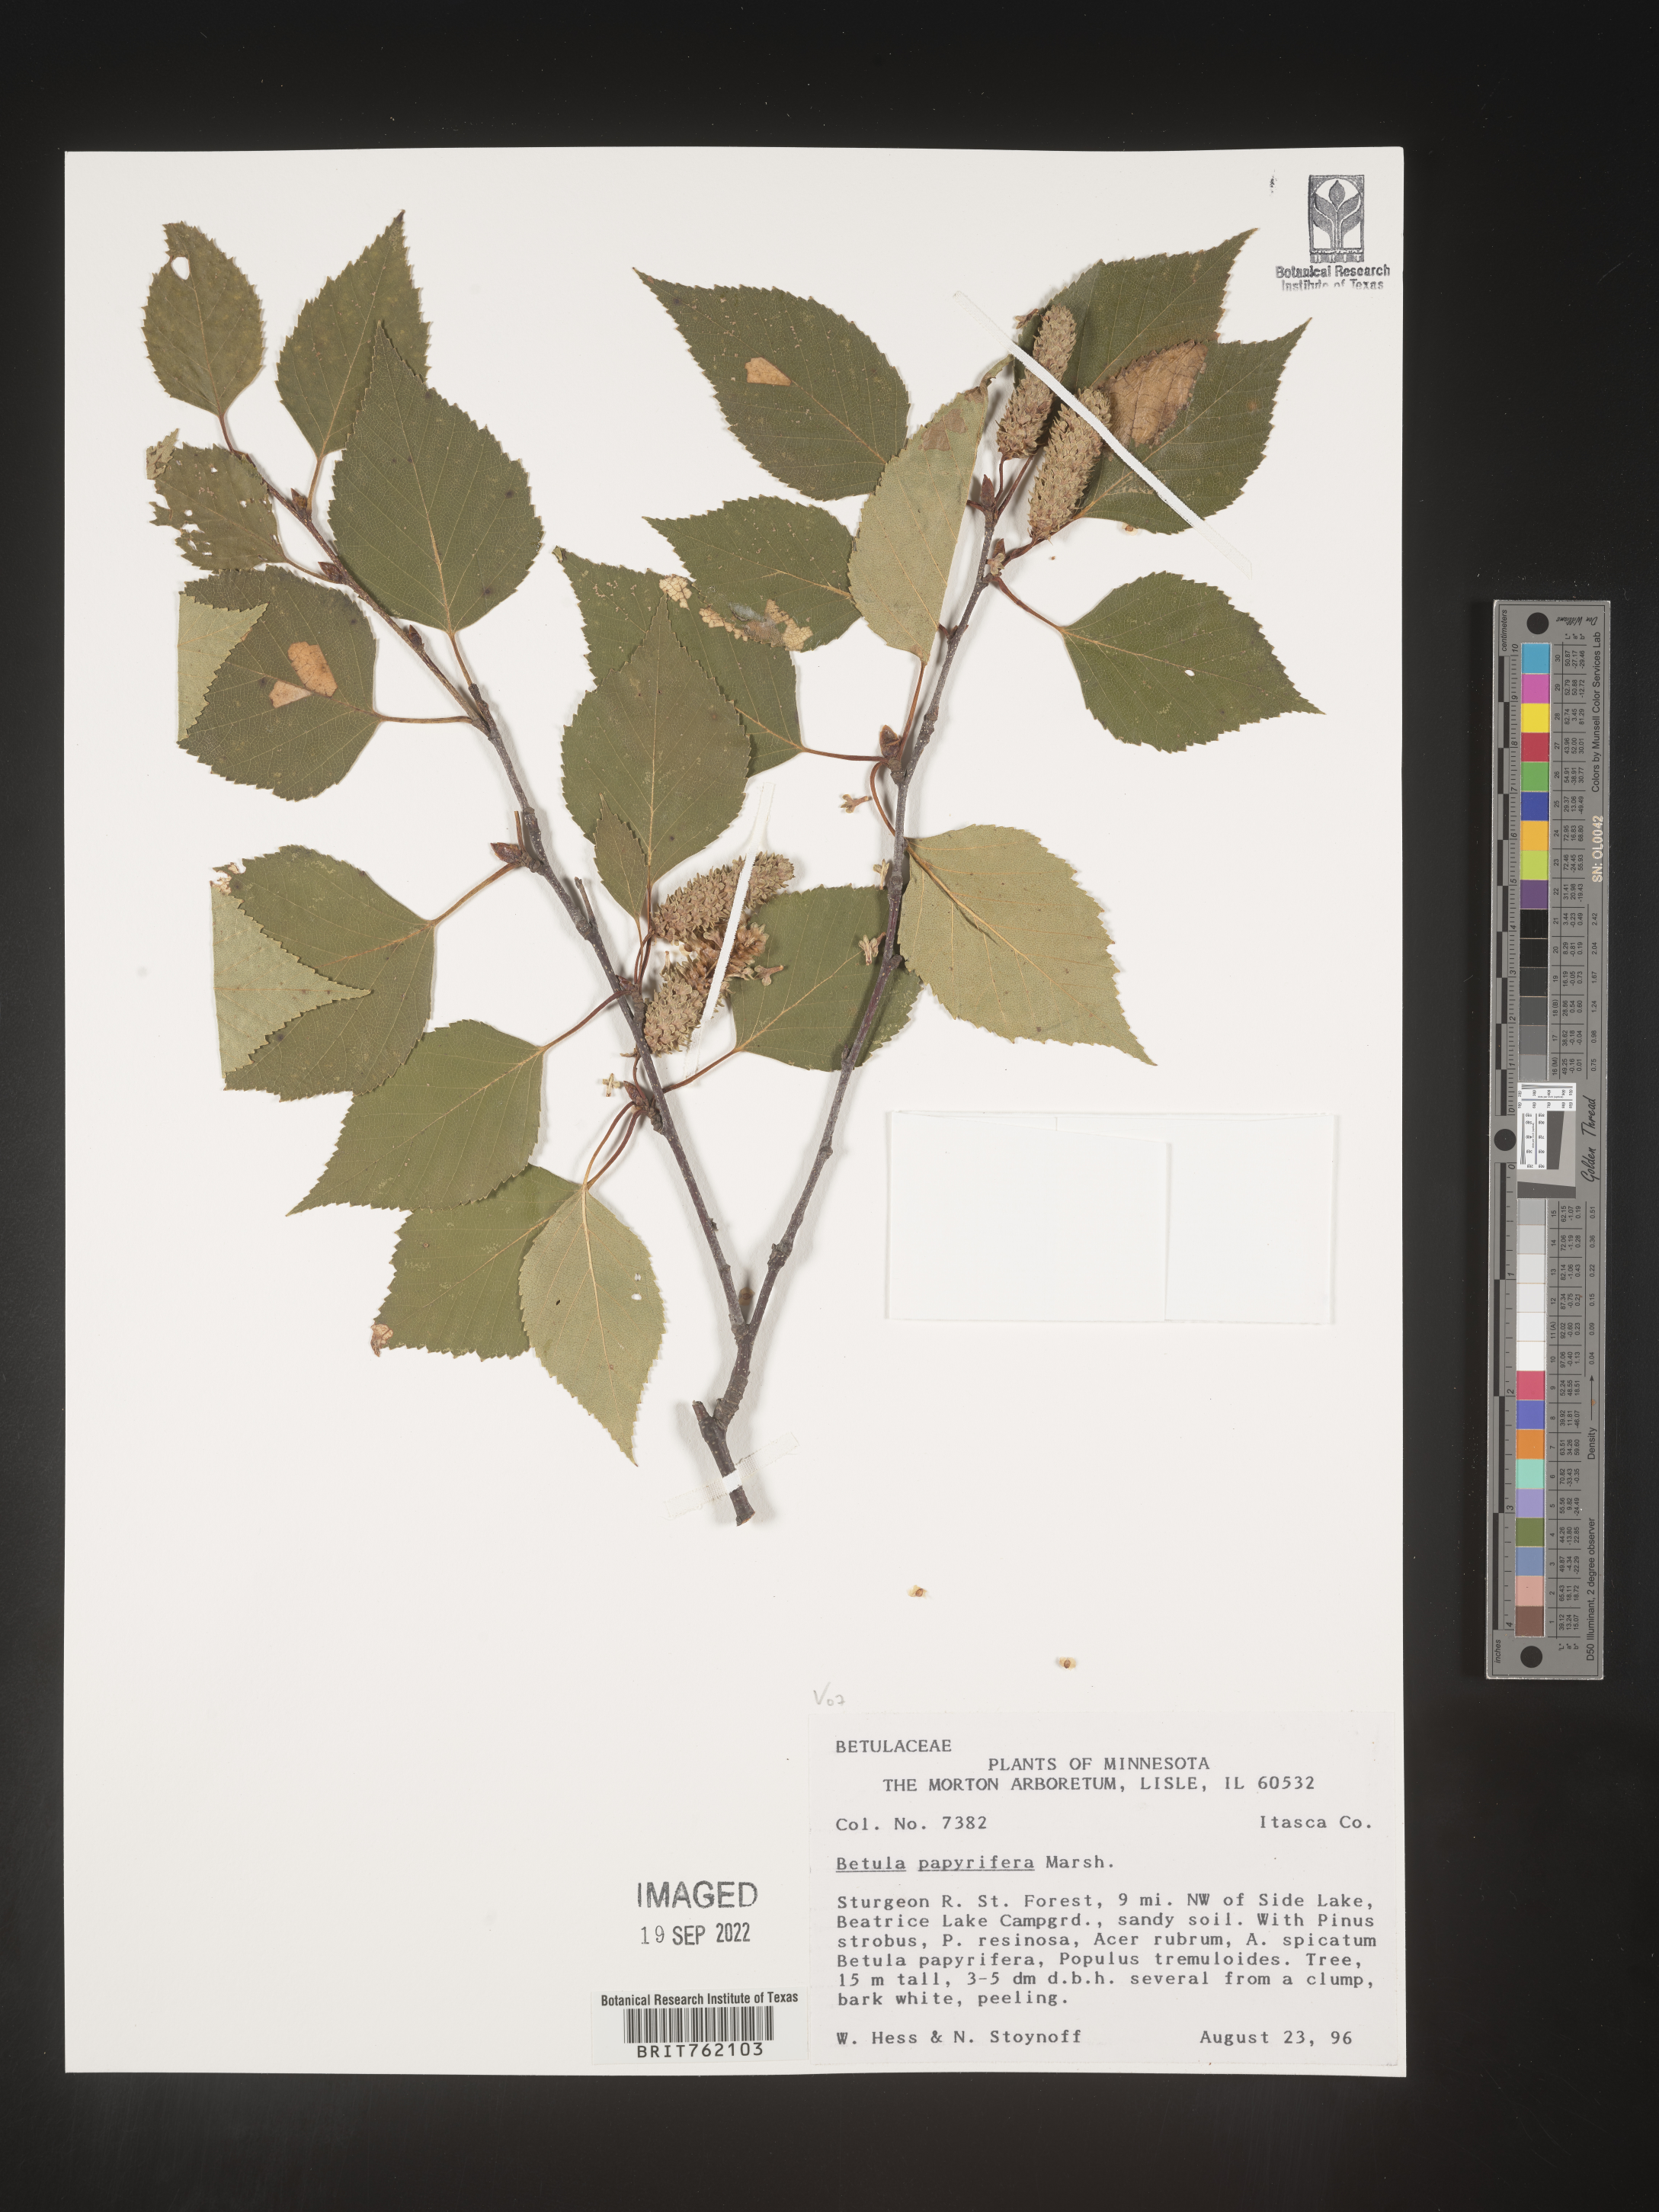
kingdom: Plantae
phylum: Tracheophyta
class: Magnoliopsida
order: Fagales
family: Betulaceae
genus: Betula
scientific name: Betula papyrifera
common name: Paper birch
